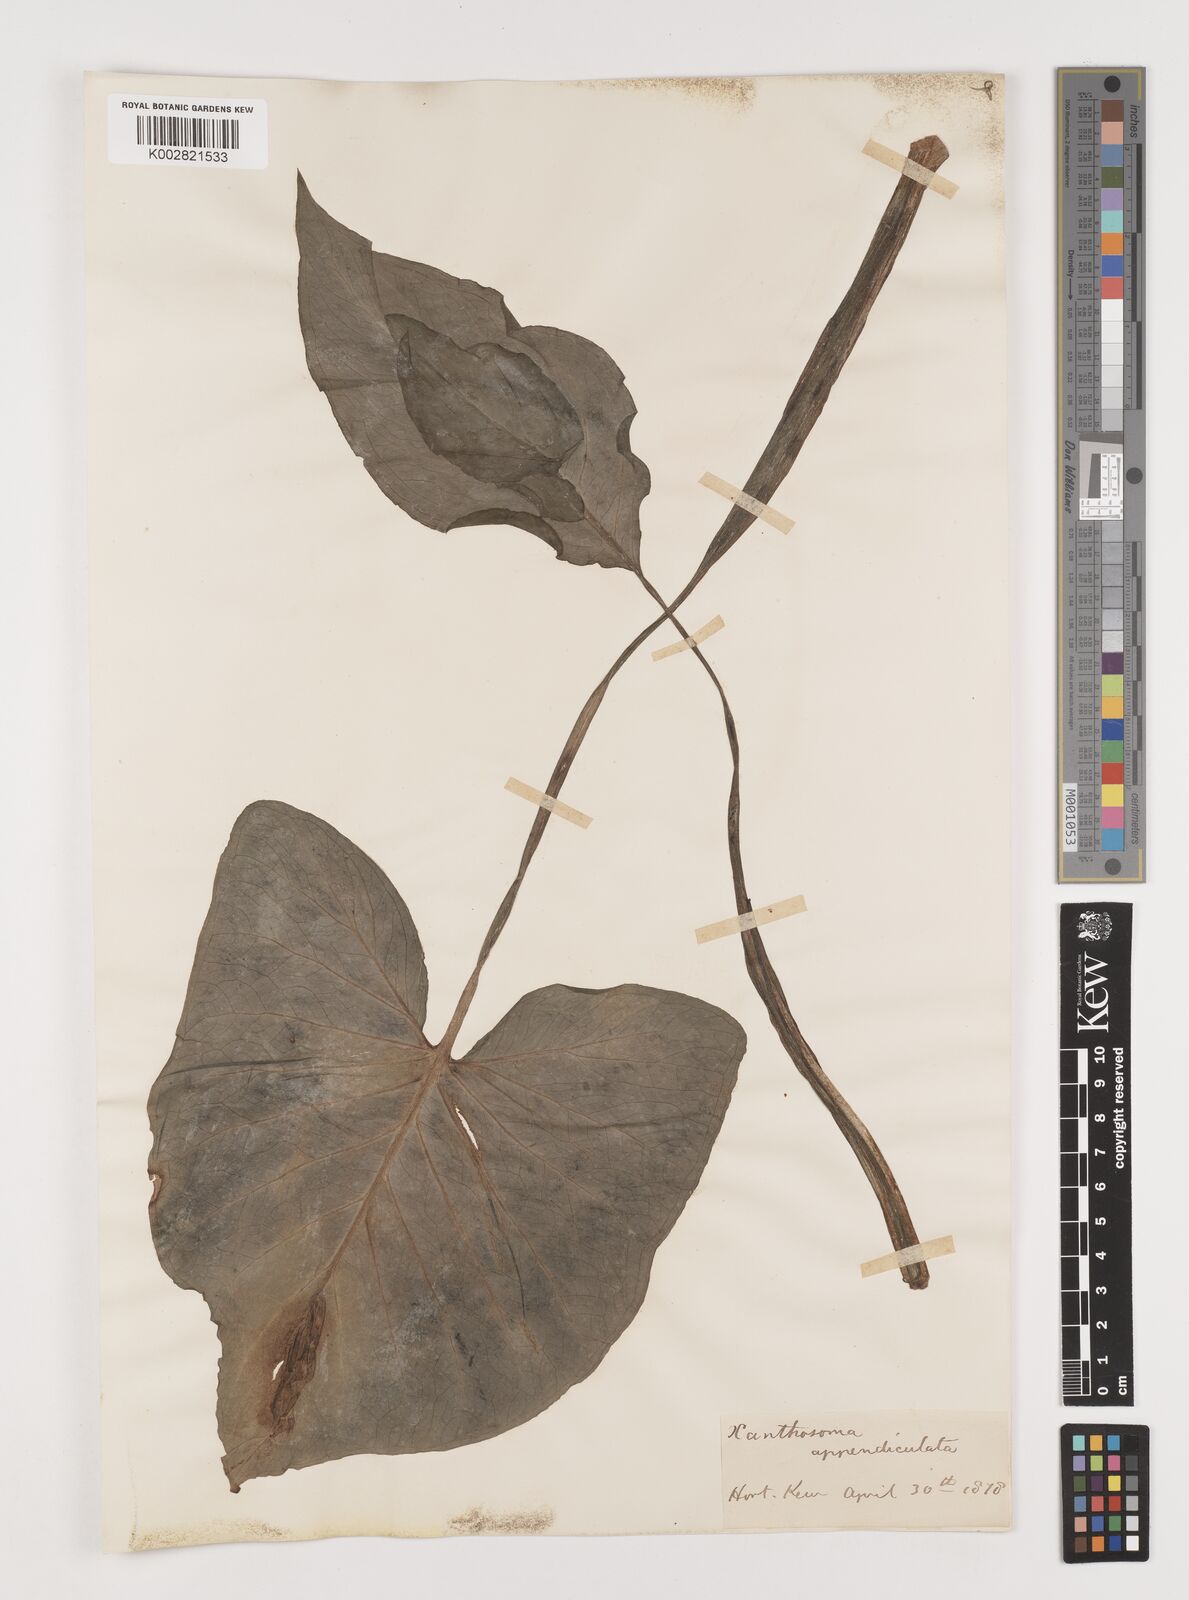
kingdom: Plantae
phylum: Tracheophyta
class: Liliopsida
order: Alismatales
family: Araceae
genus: Xanthosoma
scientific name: Xanthosoma sagittifolium
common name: Arrowleaf elephant's ear
